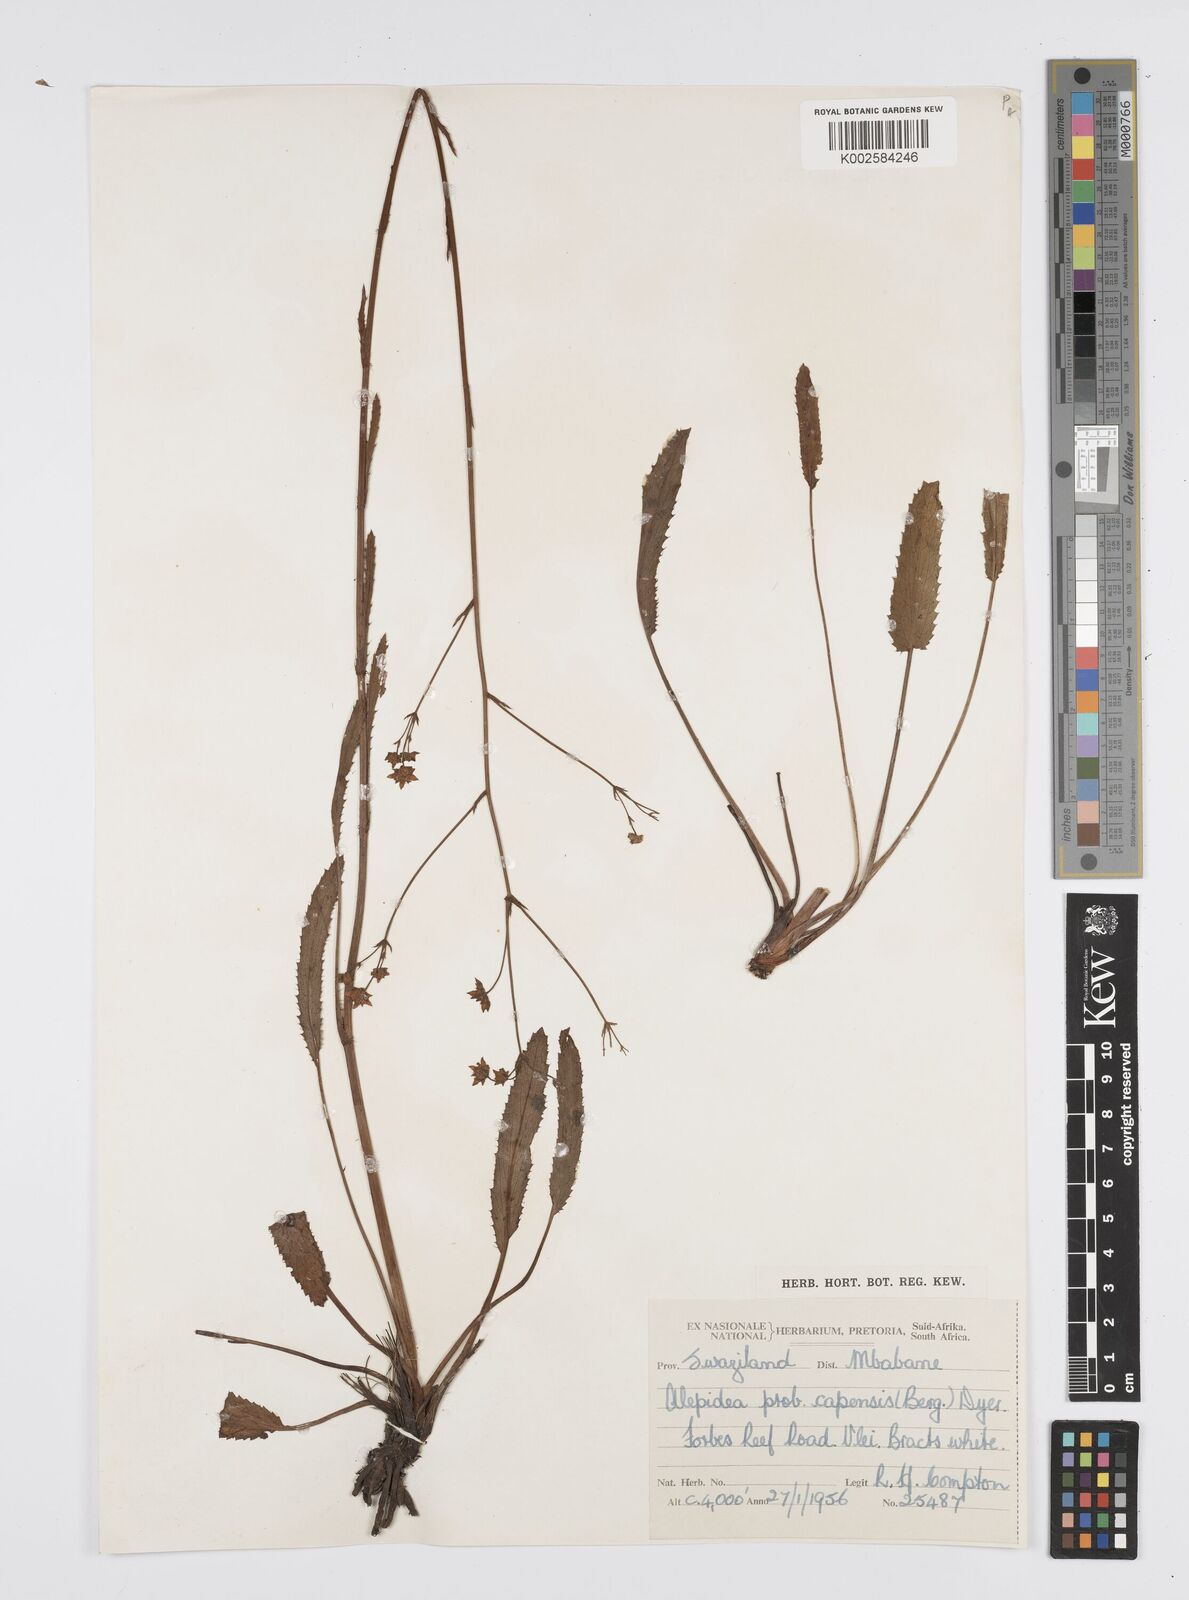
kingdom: Plantae
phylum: Tracheophyta
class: Magnoliopsida
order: Apiales
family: Apiaceae
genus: Alepidea
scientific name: Alepidea attenuata
